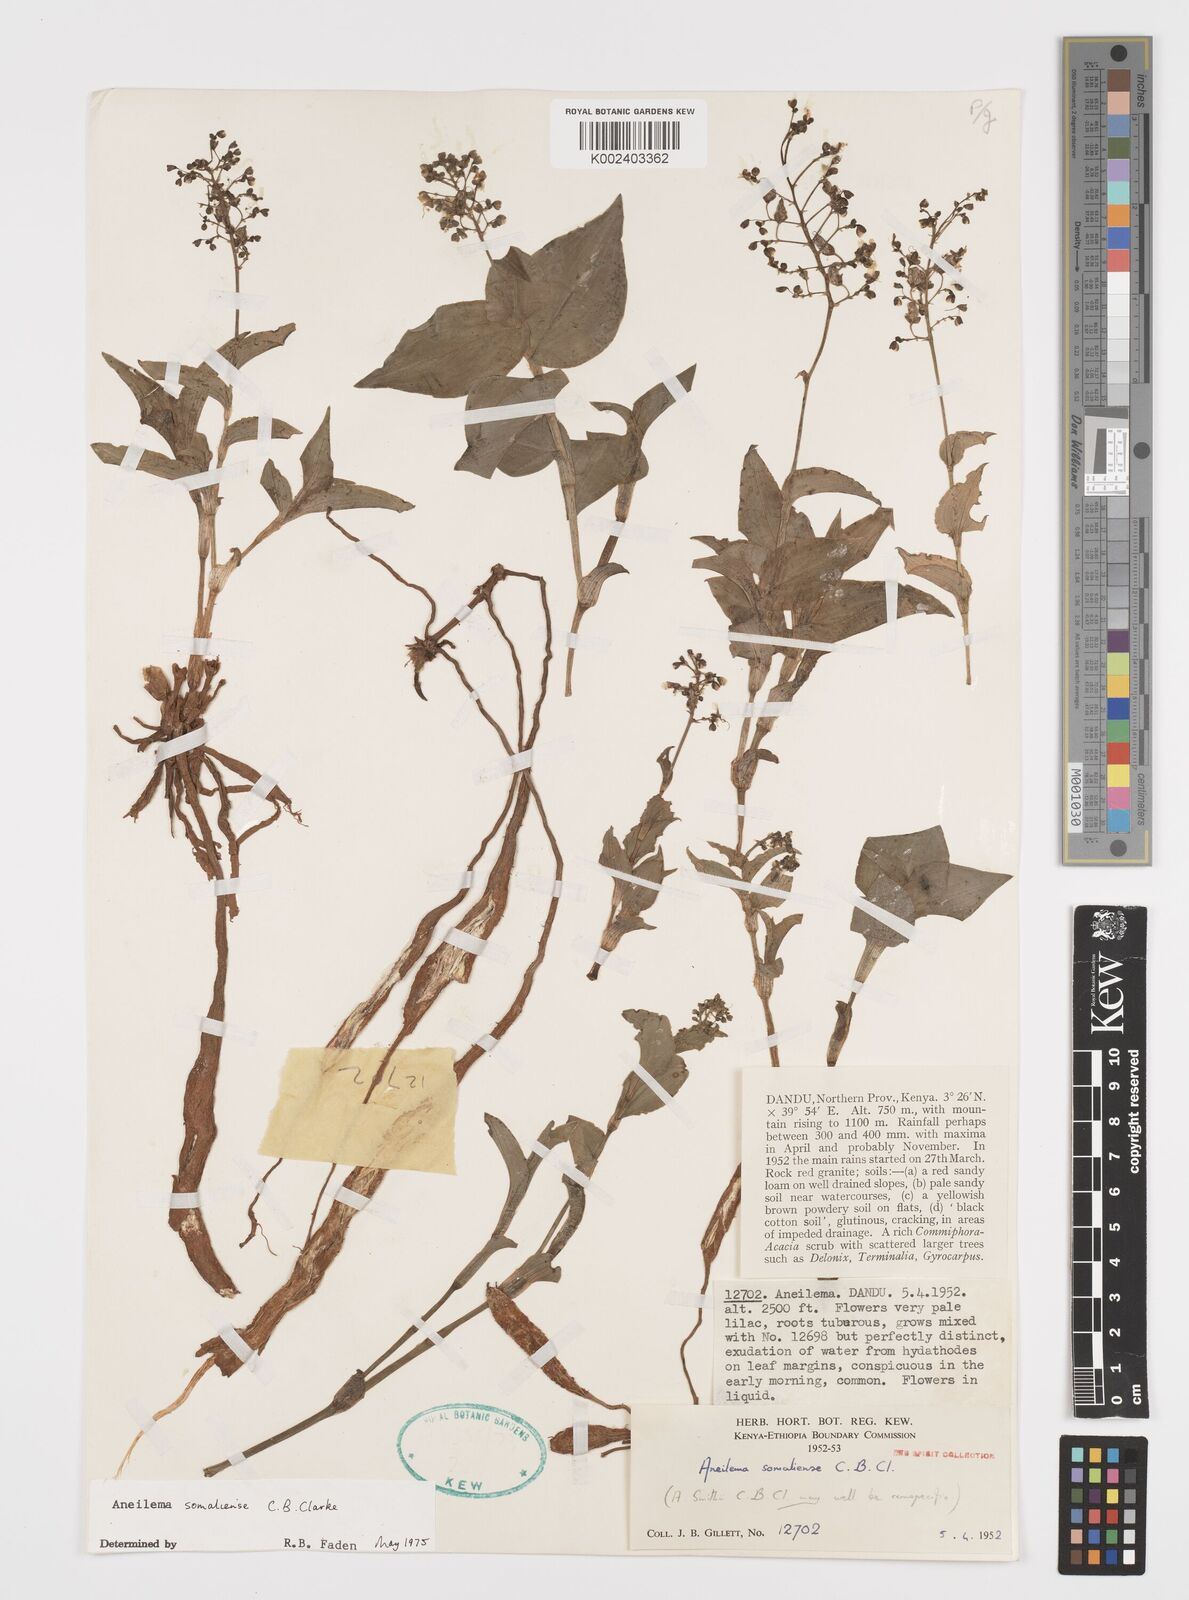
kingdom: Plantae
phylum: Tracheophyta
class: Liliopsida
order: Commelinales
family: Commelinaceae
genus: Aneilema
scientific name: Aneilema somaliense
